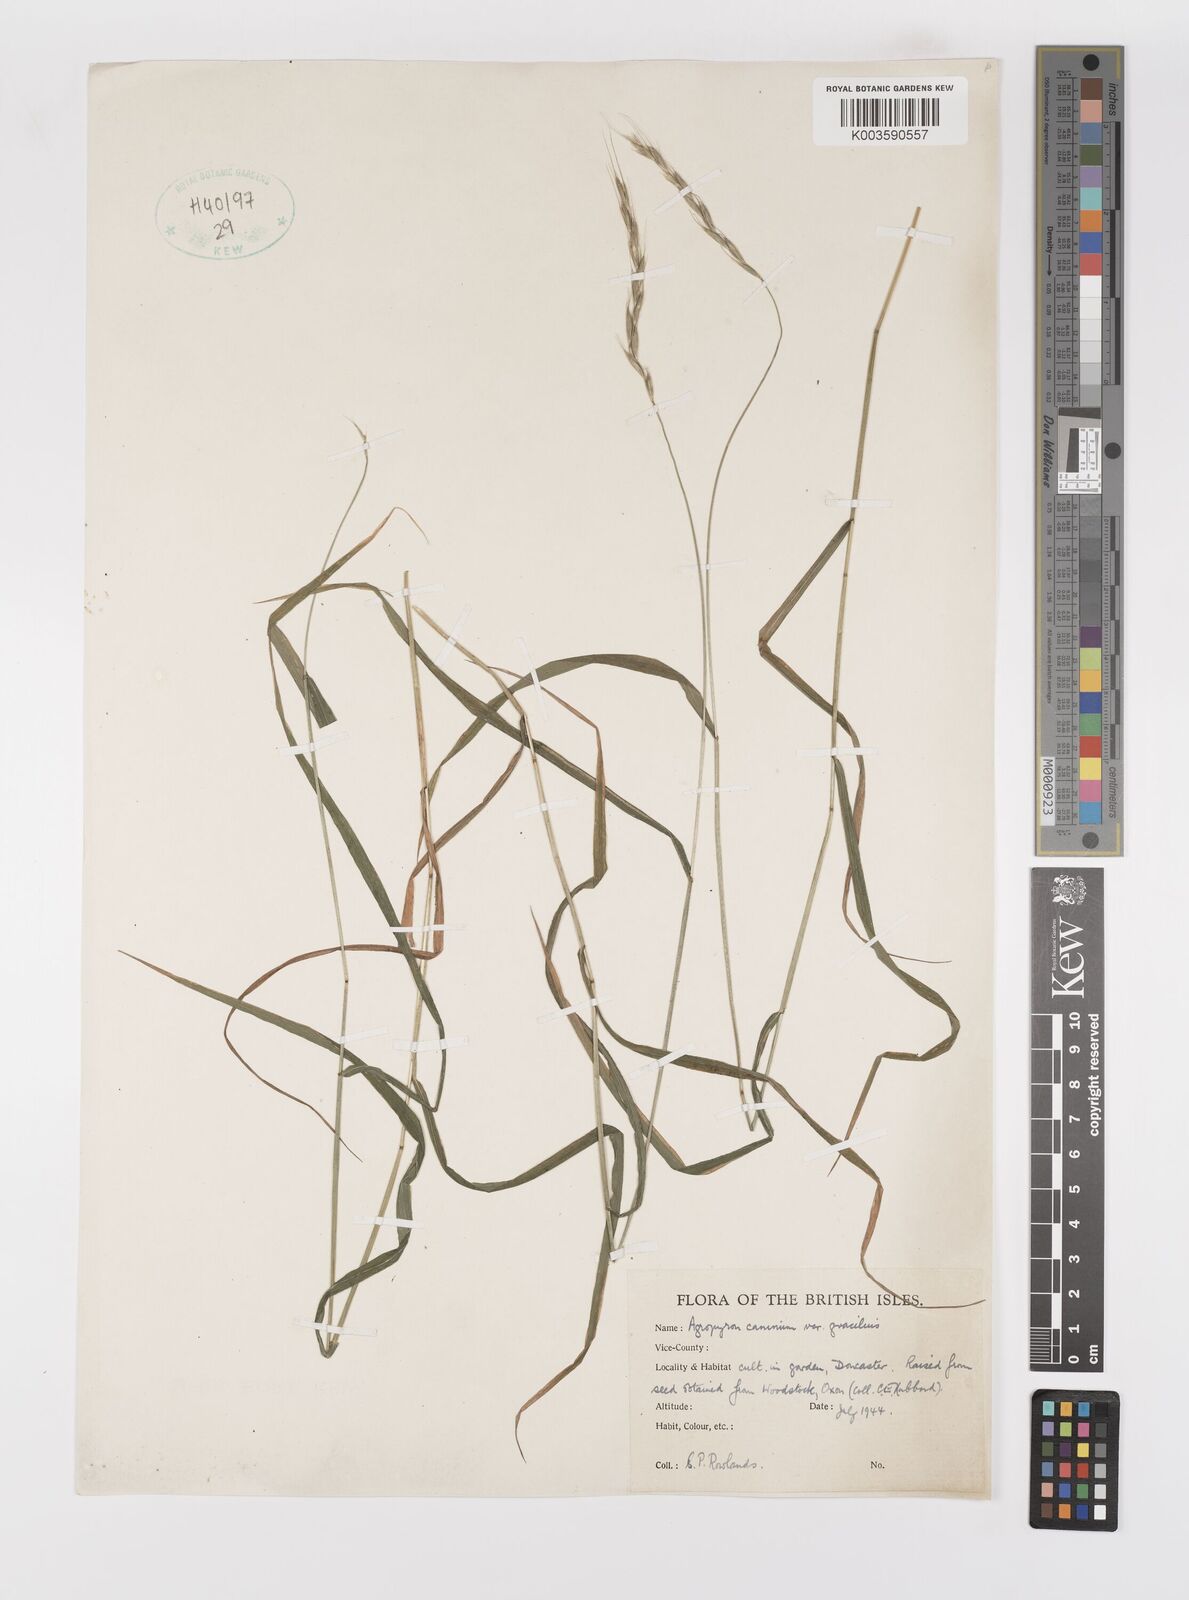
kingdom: Plantae
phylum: Tracheophyta
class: Liliopsida
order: Poales
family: Poaceae
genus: Elymus
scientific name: Elymus caninus
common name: Bearded couch
